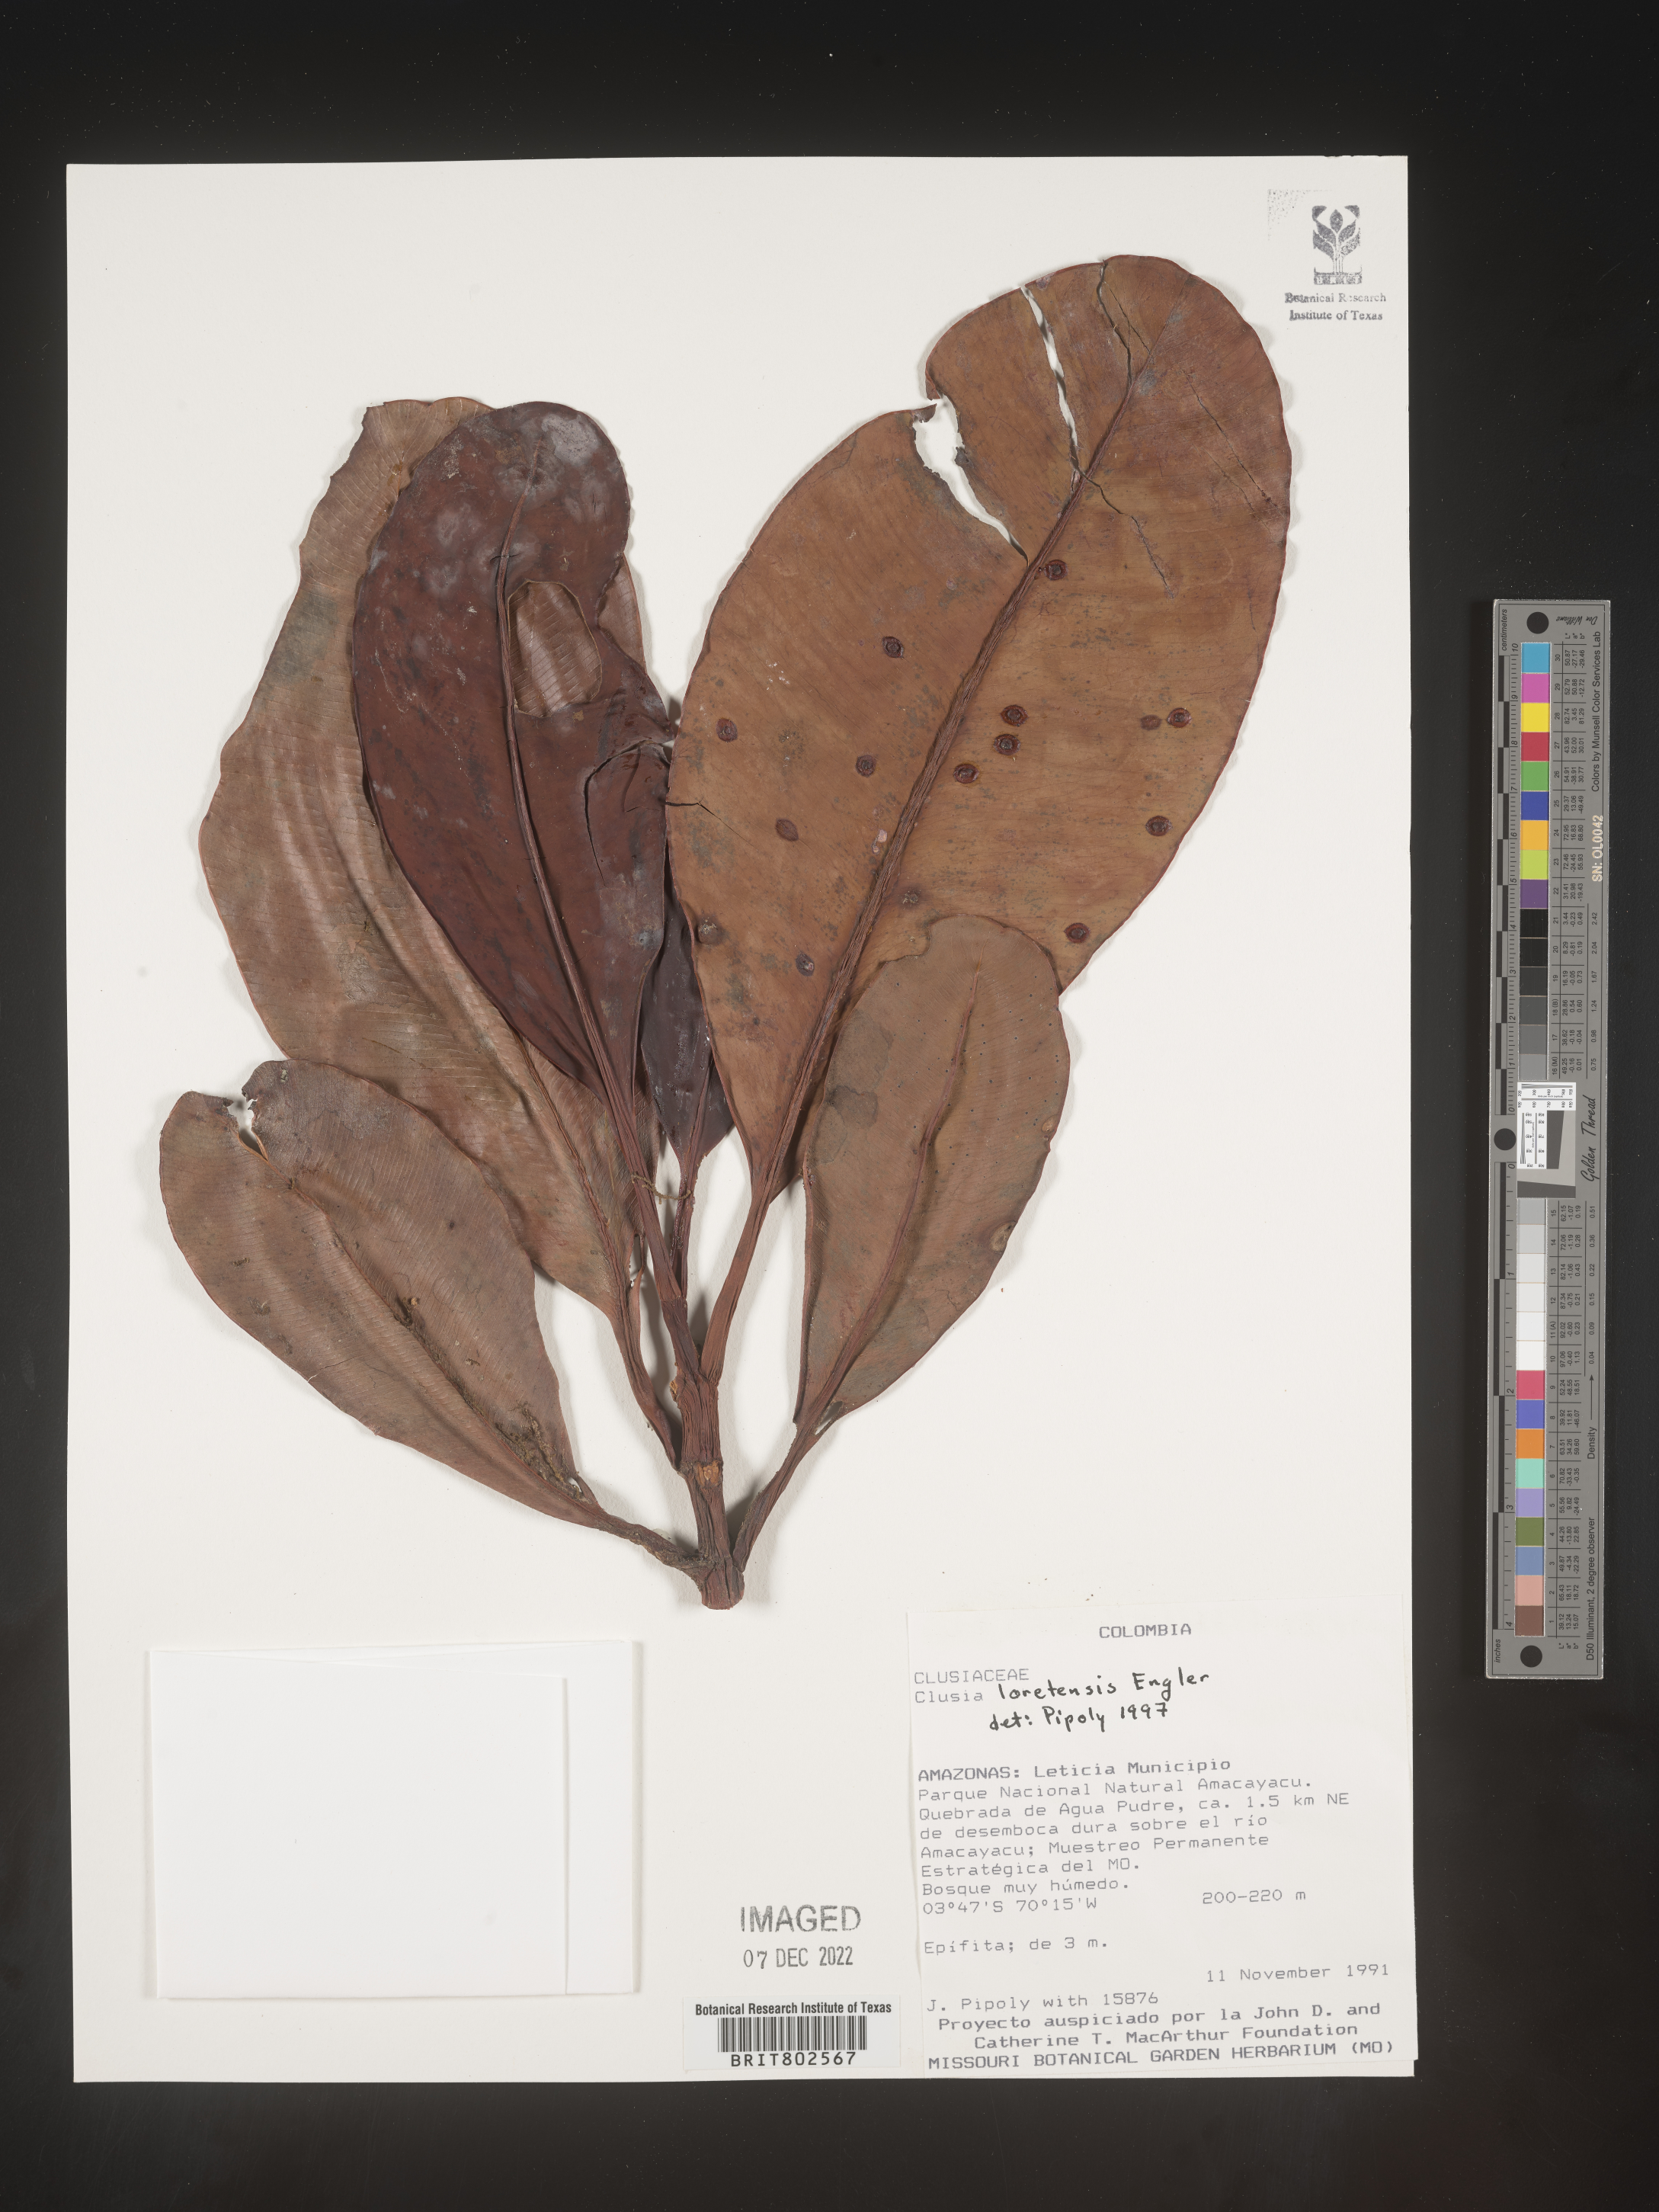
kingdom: Plantae
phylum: Tracheophyta
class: Magnoliopsida
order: Malpighiales
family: Clusiaceae
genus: Clusia
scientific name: Clusia loretensis
